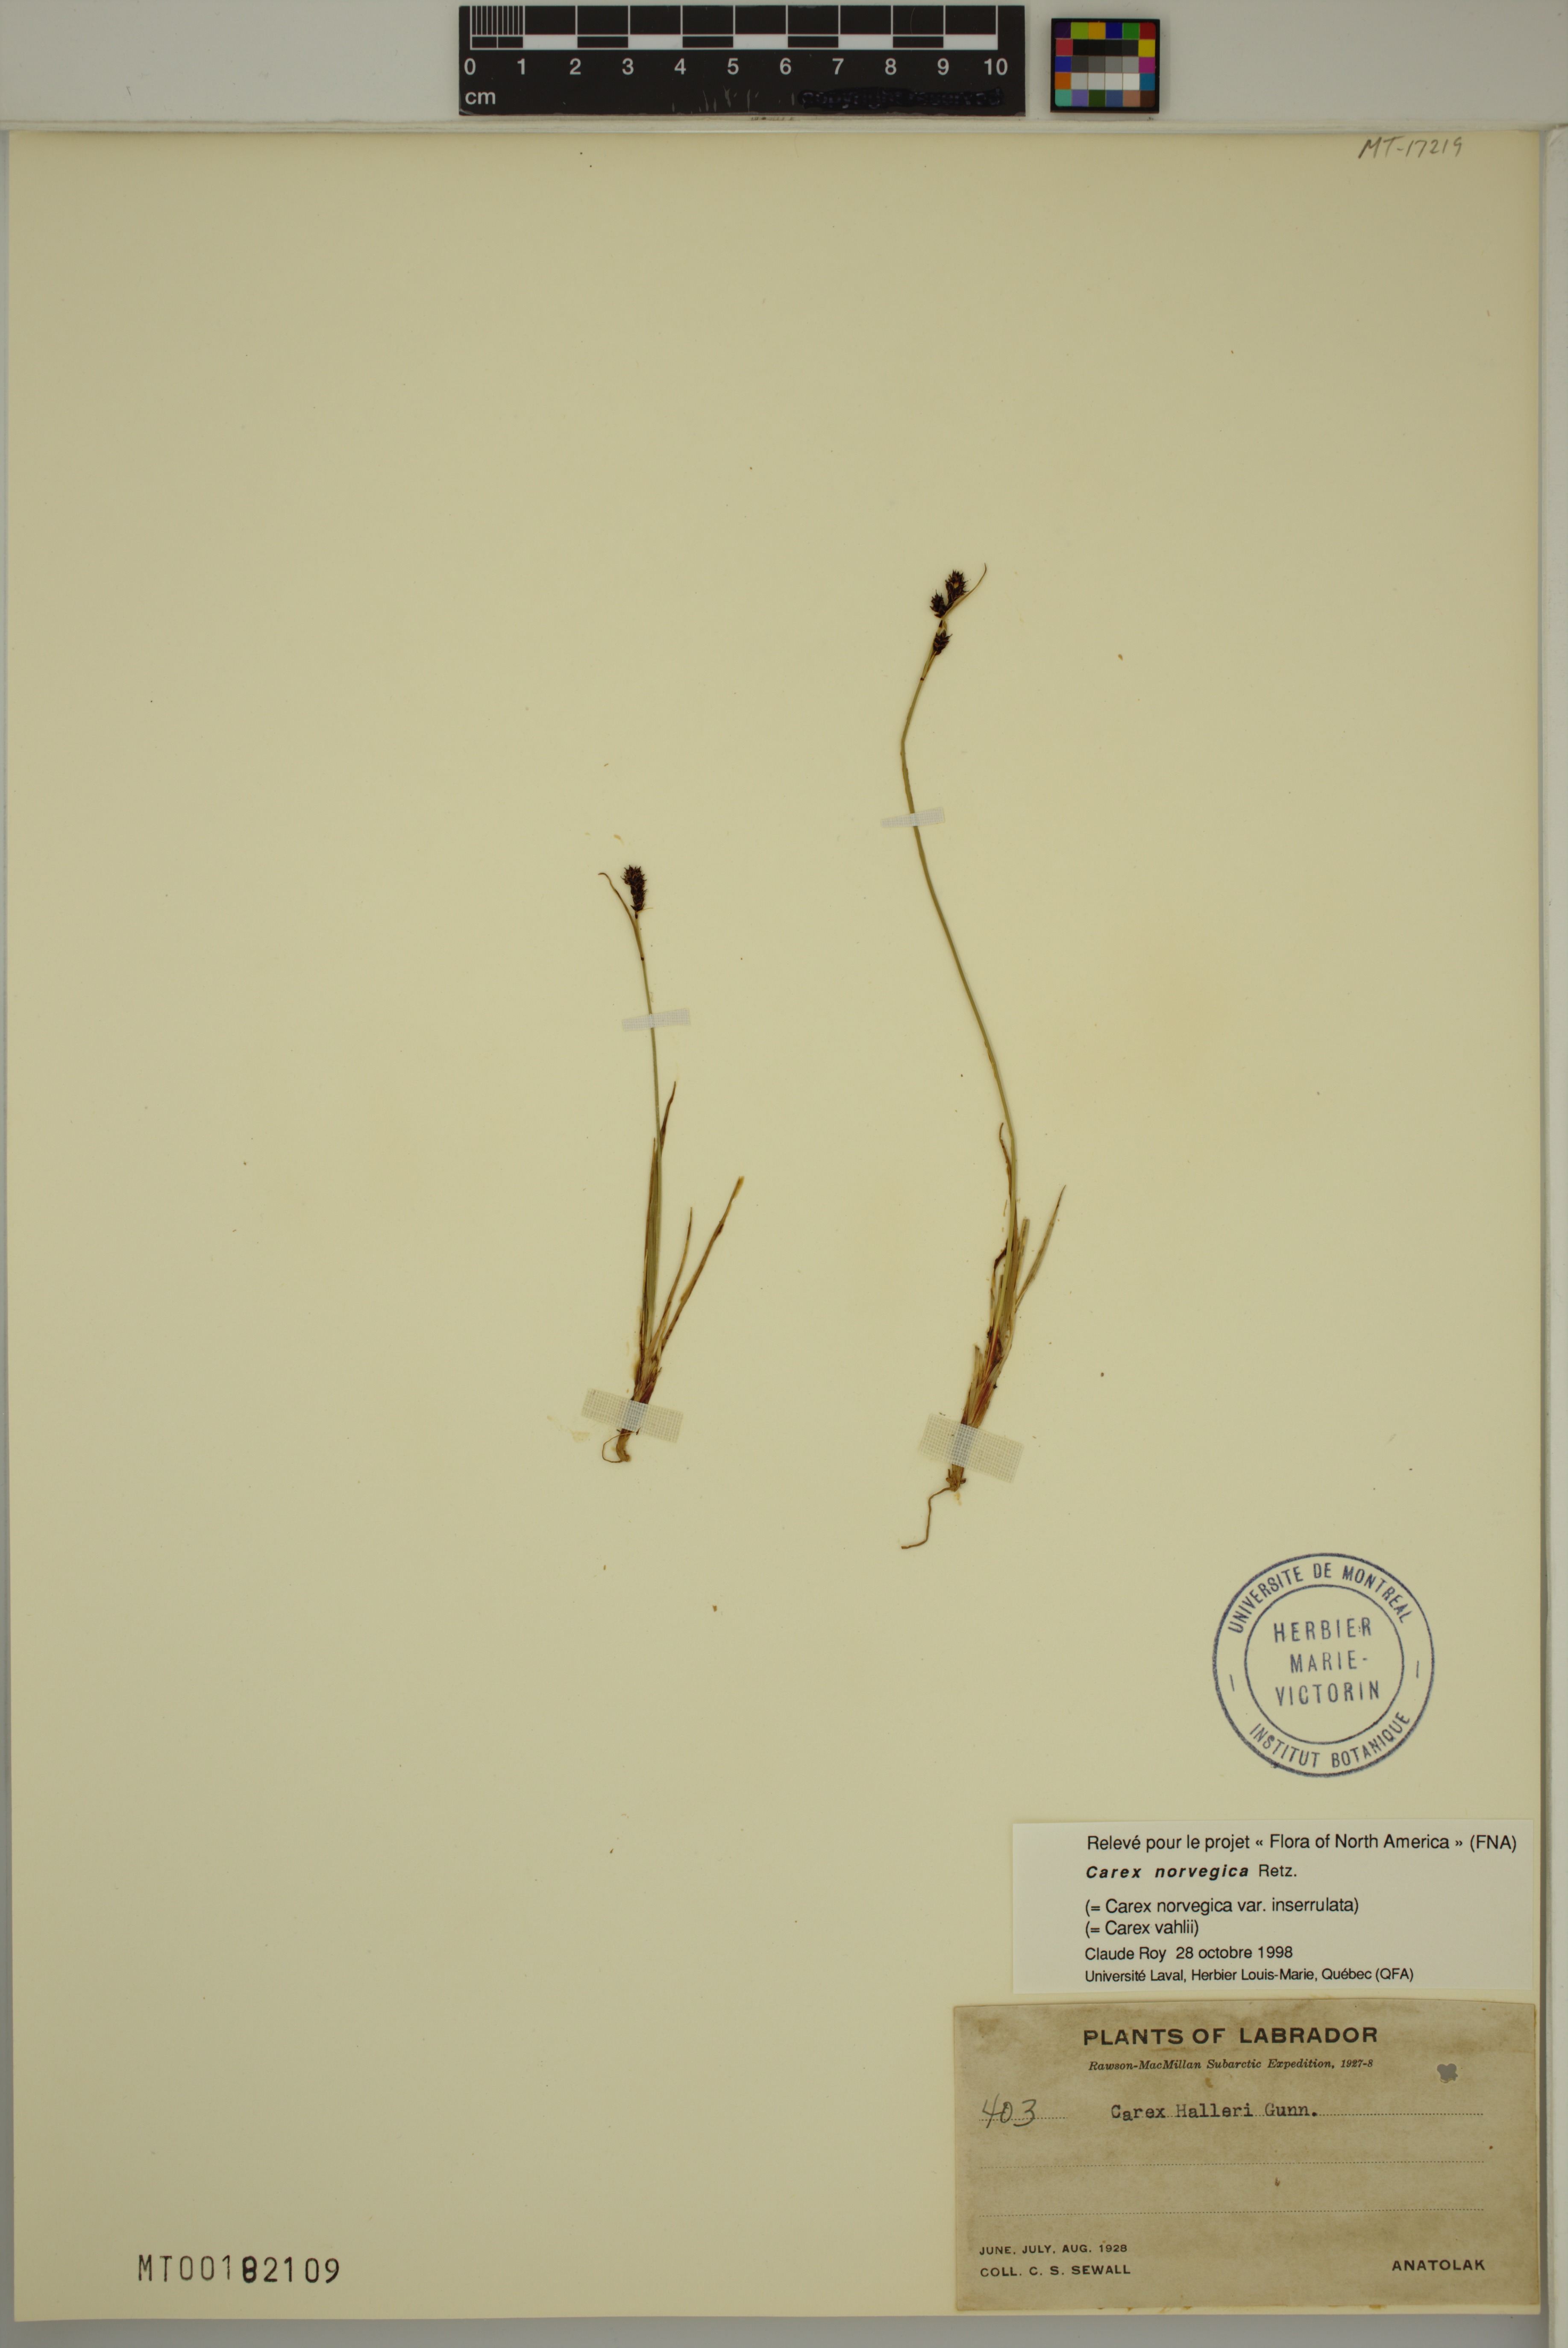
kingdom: Plantae
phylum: Tracheophyta
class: Liliopsida
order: Poales
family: Cyperaceae
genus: Carex
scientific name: Carex norvegica
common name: Close-headed alpine-sedge
